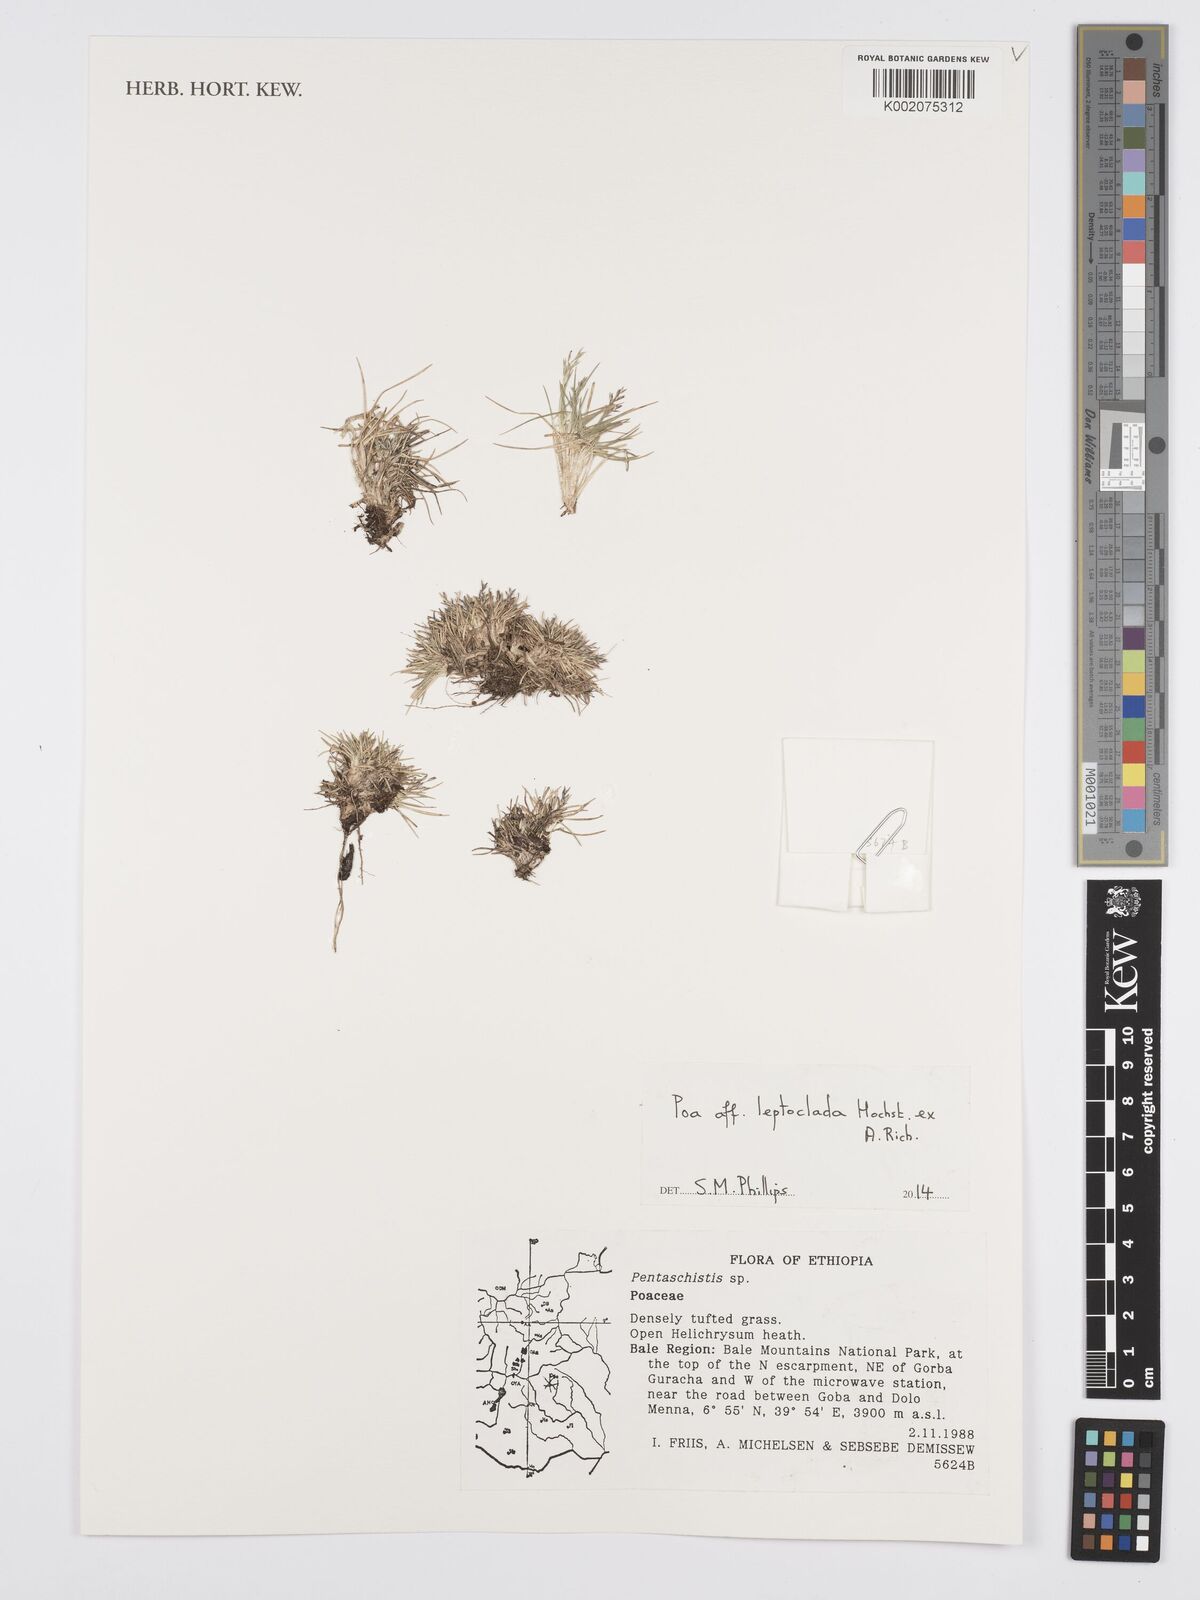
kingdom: Plantae
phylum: Tracheophyta
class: Liliopsida
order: Poales
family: Poaceae
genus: Poa
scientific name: Poa leptoclada
